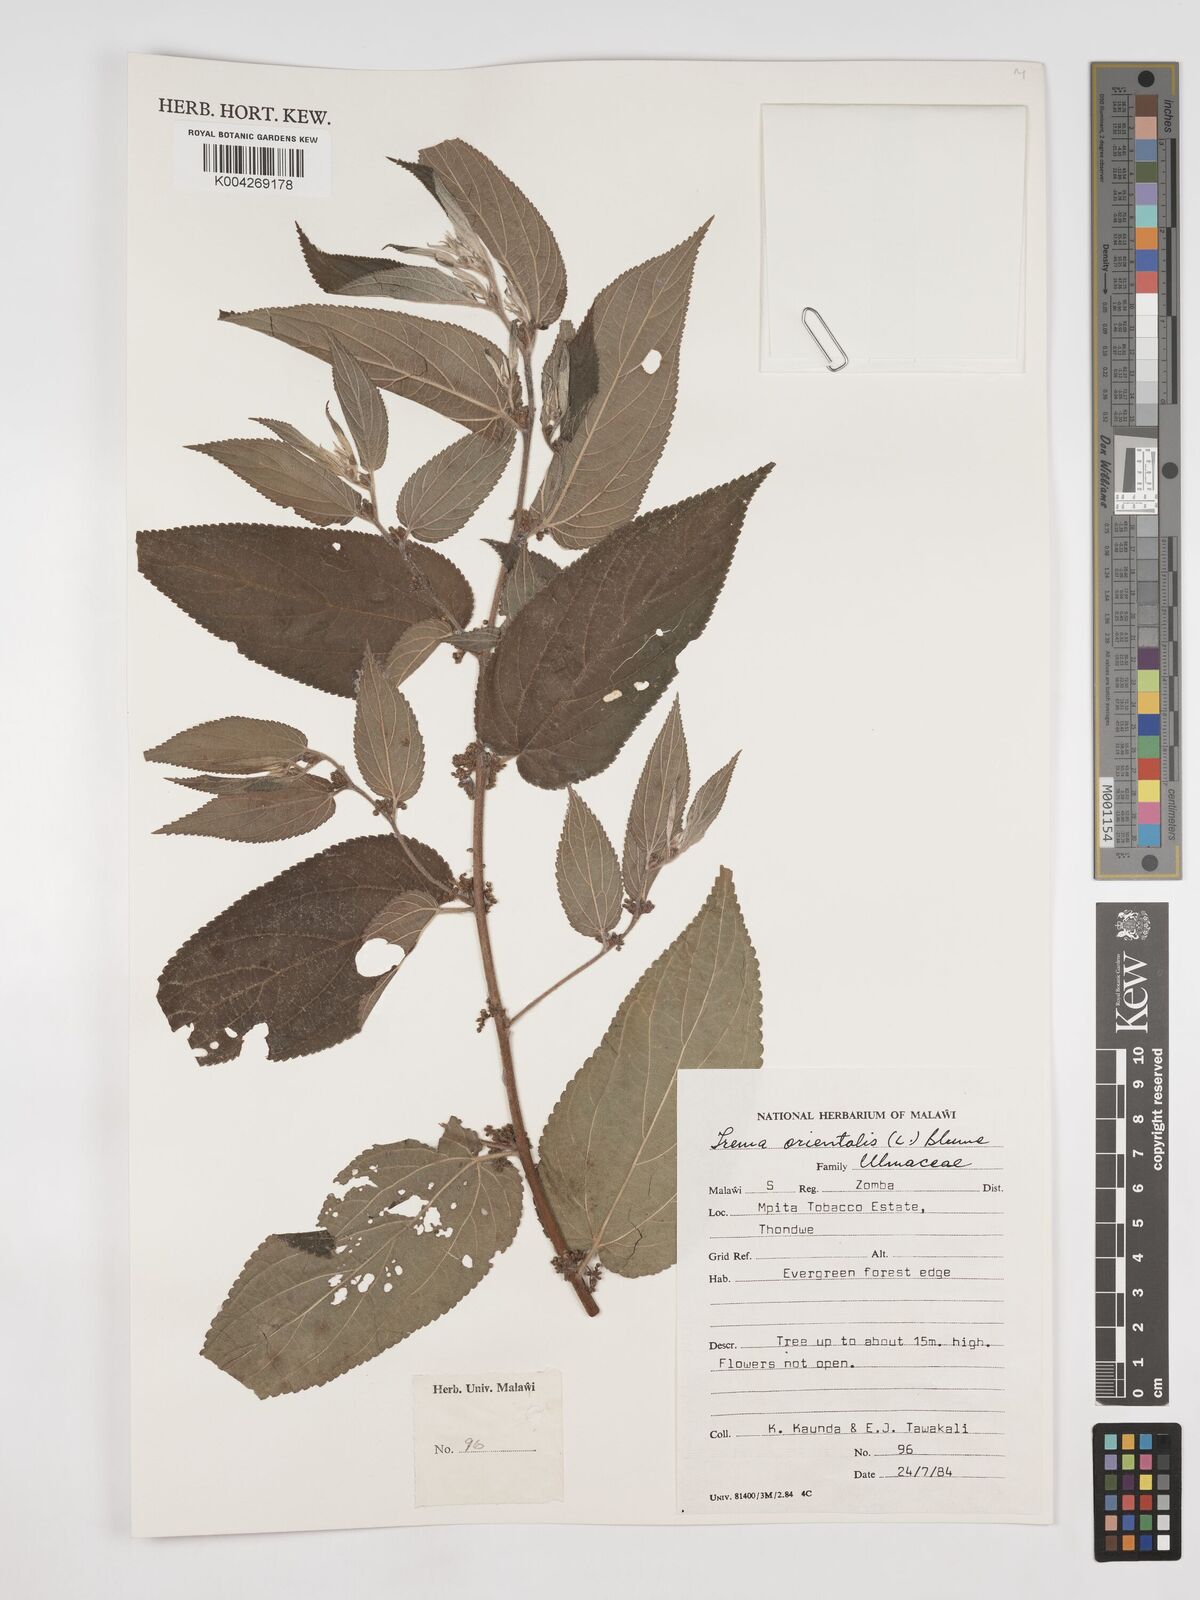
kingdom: Plantae
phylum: Tracheophyta
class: Magnoliopsida
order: Rosales
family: Cannabaceae
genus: Trema
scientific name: Trema orientale
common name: Indian charcoal tree
